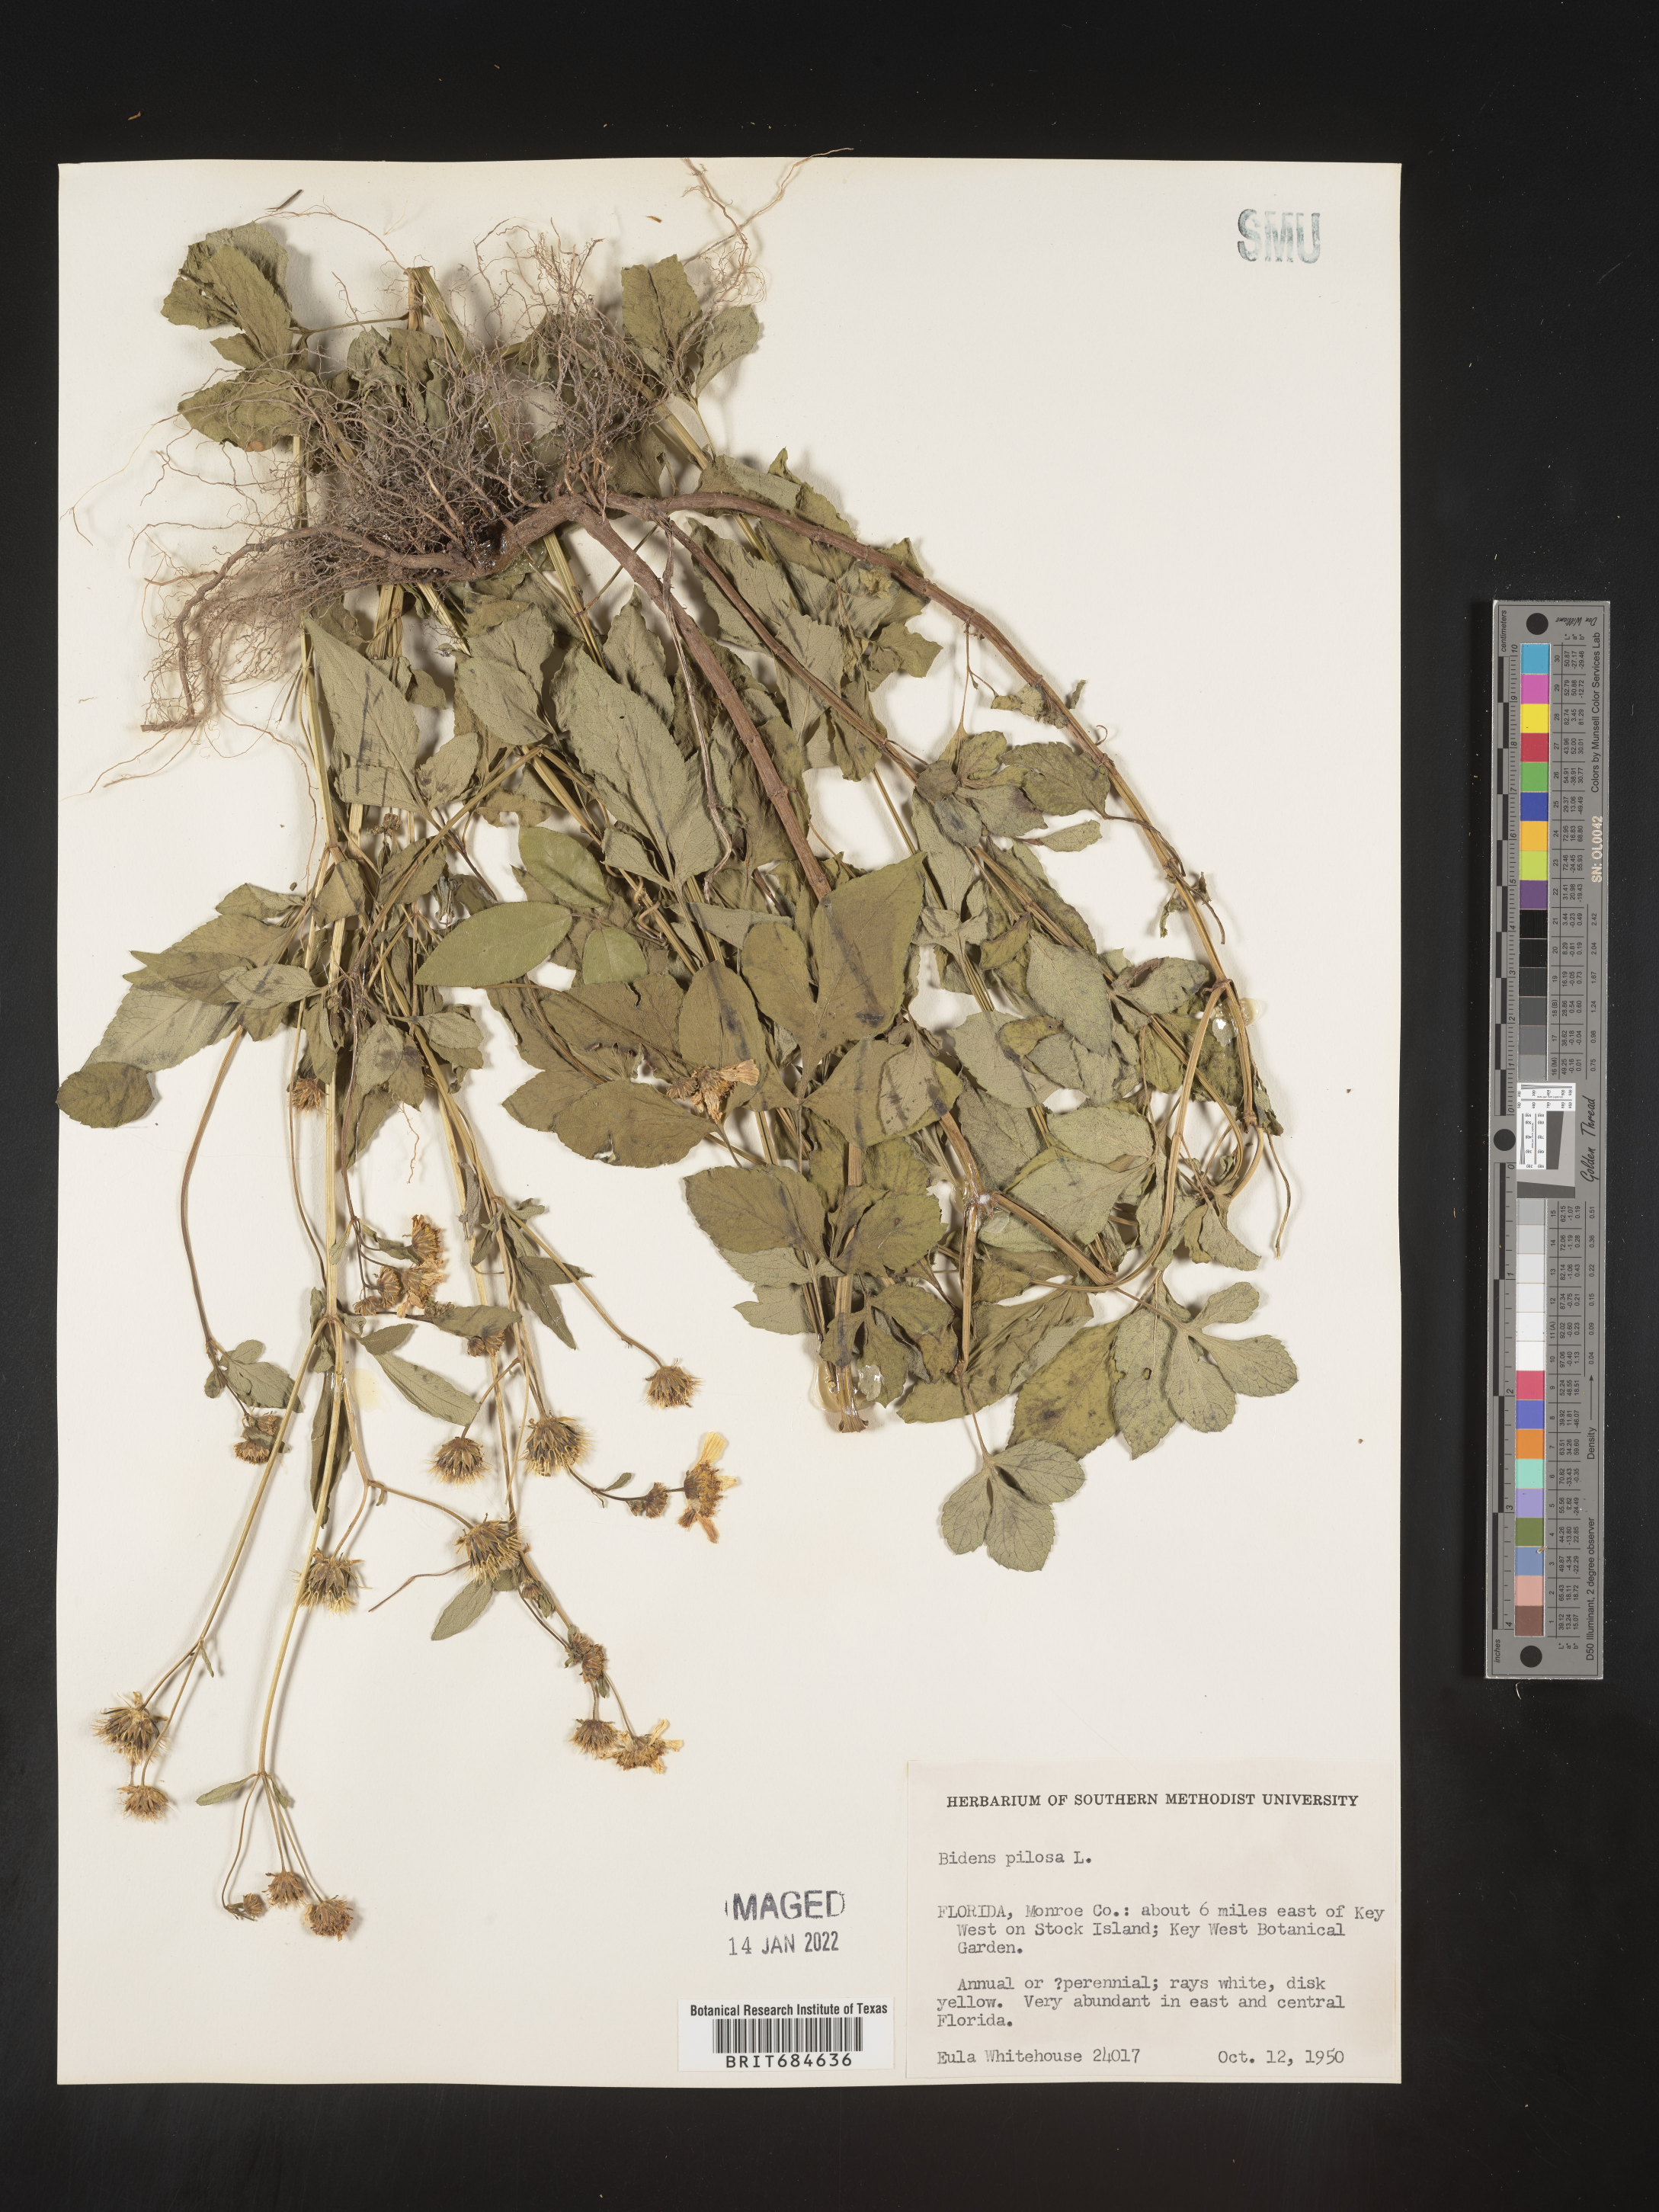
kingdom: Plantae
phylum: Tracheophyta
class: Magnoliopsida
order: Asterales
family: Asteraceae
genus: Bidens
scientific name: Bidens pilosa
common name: Black-jack
